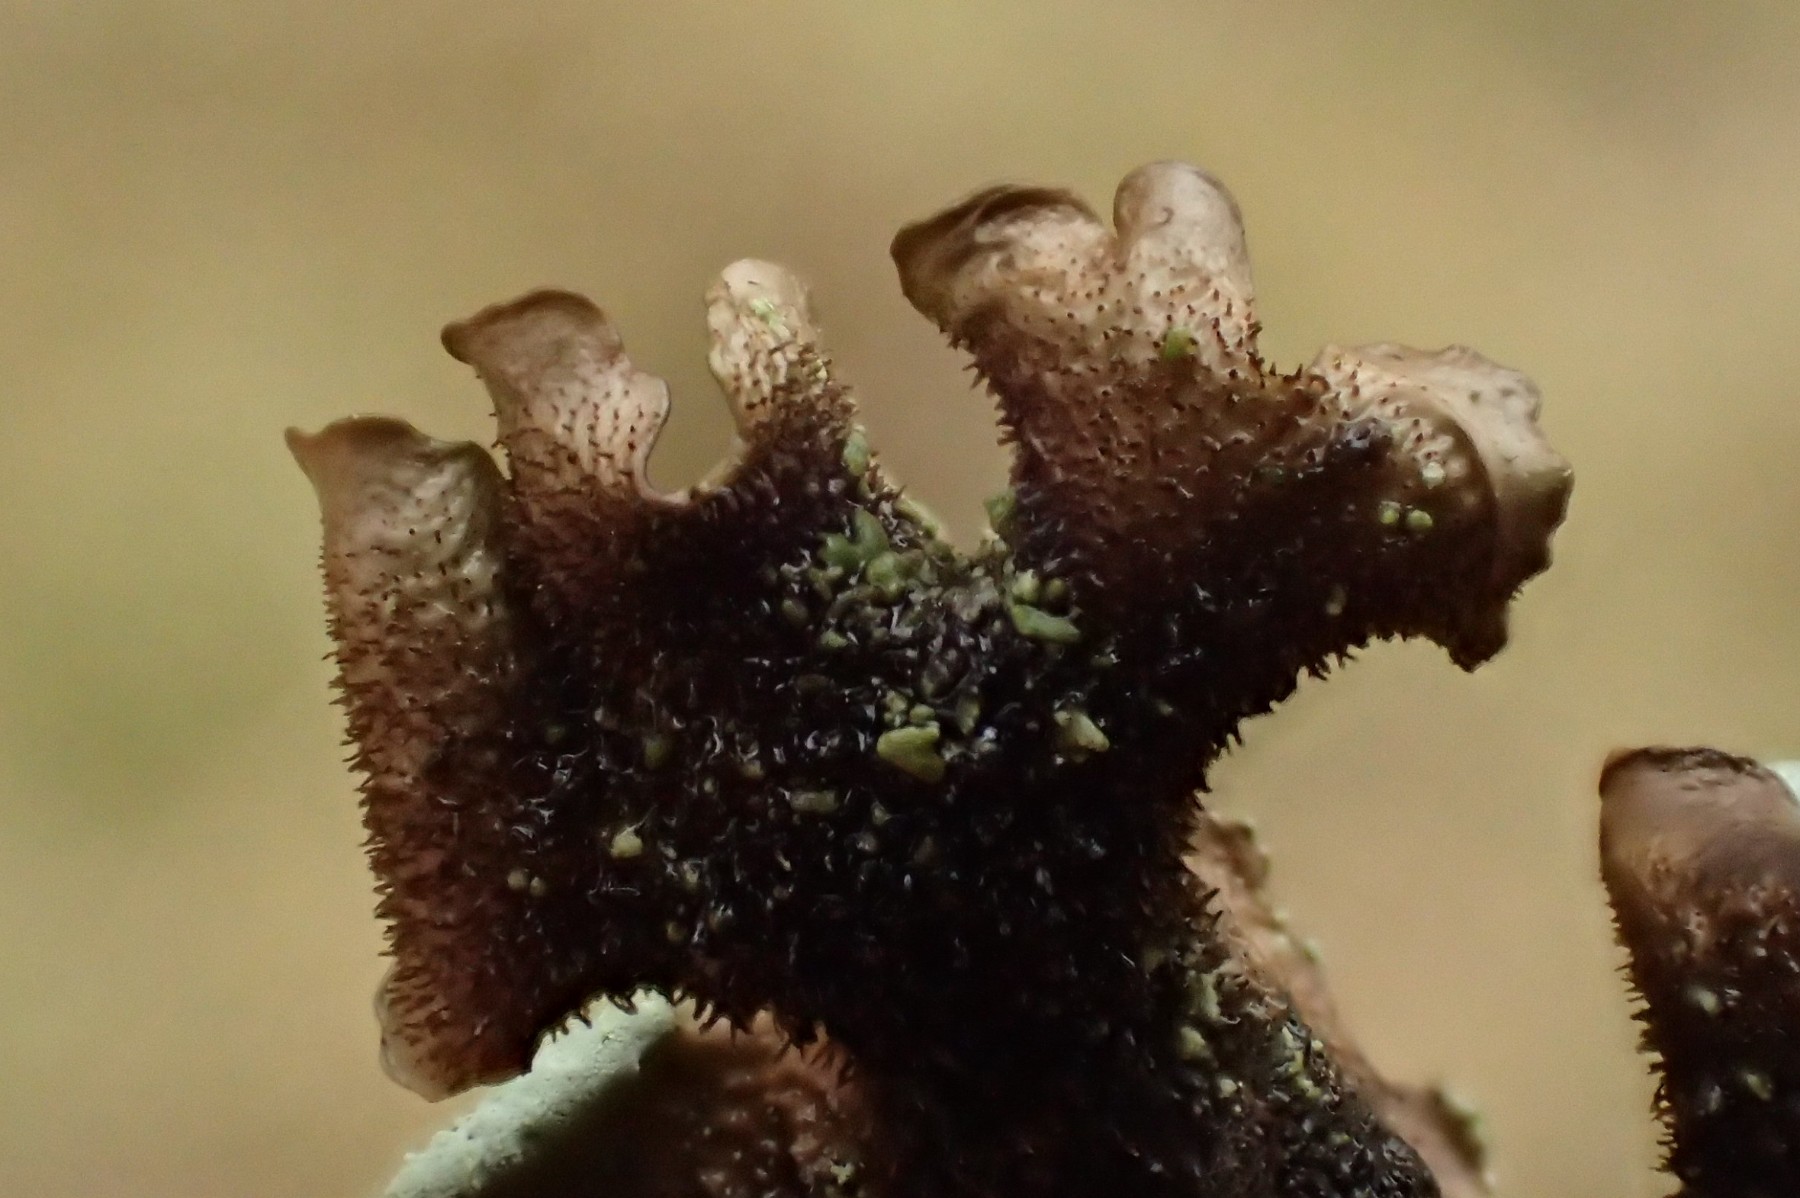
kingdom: Fungi
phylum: Ascomycota
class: Lecanoromycetes
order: Lecanorales
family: Parmeliaceae
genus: Hypotrachyna
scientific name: Hypotrachyna revoluta
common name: bleggrå skållav
